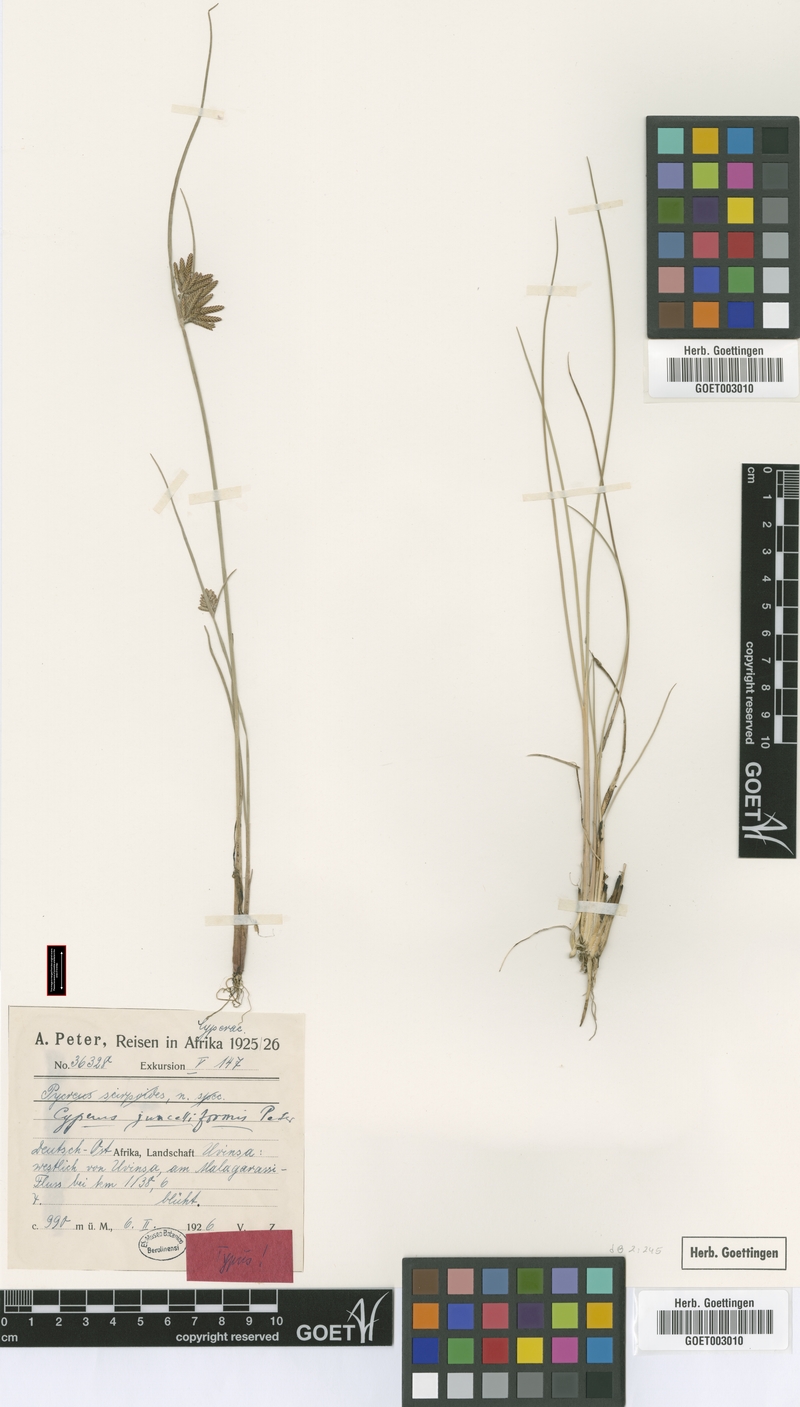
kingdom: Plantae
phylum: Tracheophyta
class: Liliopsida
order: Poales
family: Cyperaceae
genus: Cyperus
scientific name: Cyperus juncelliformis
